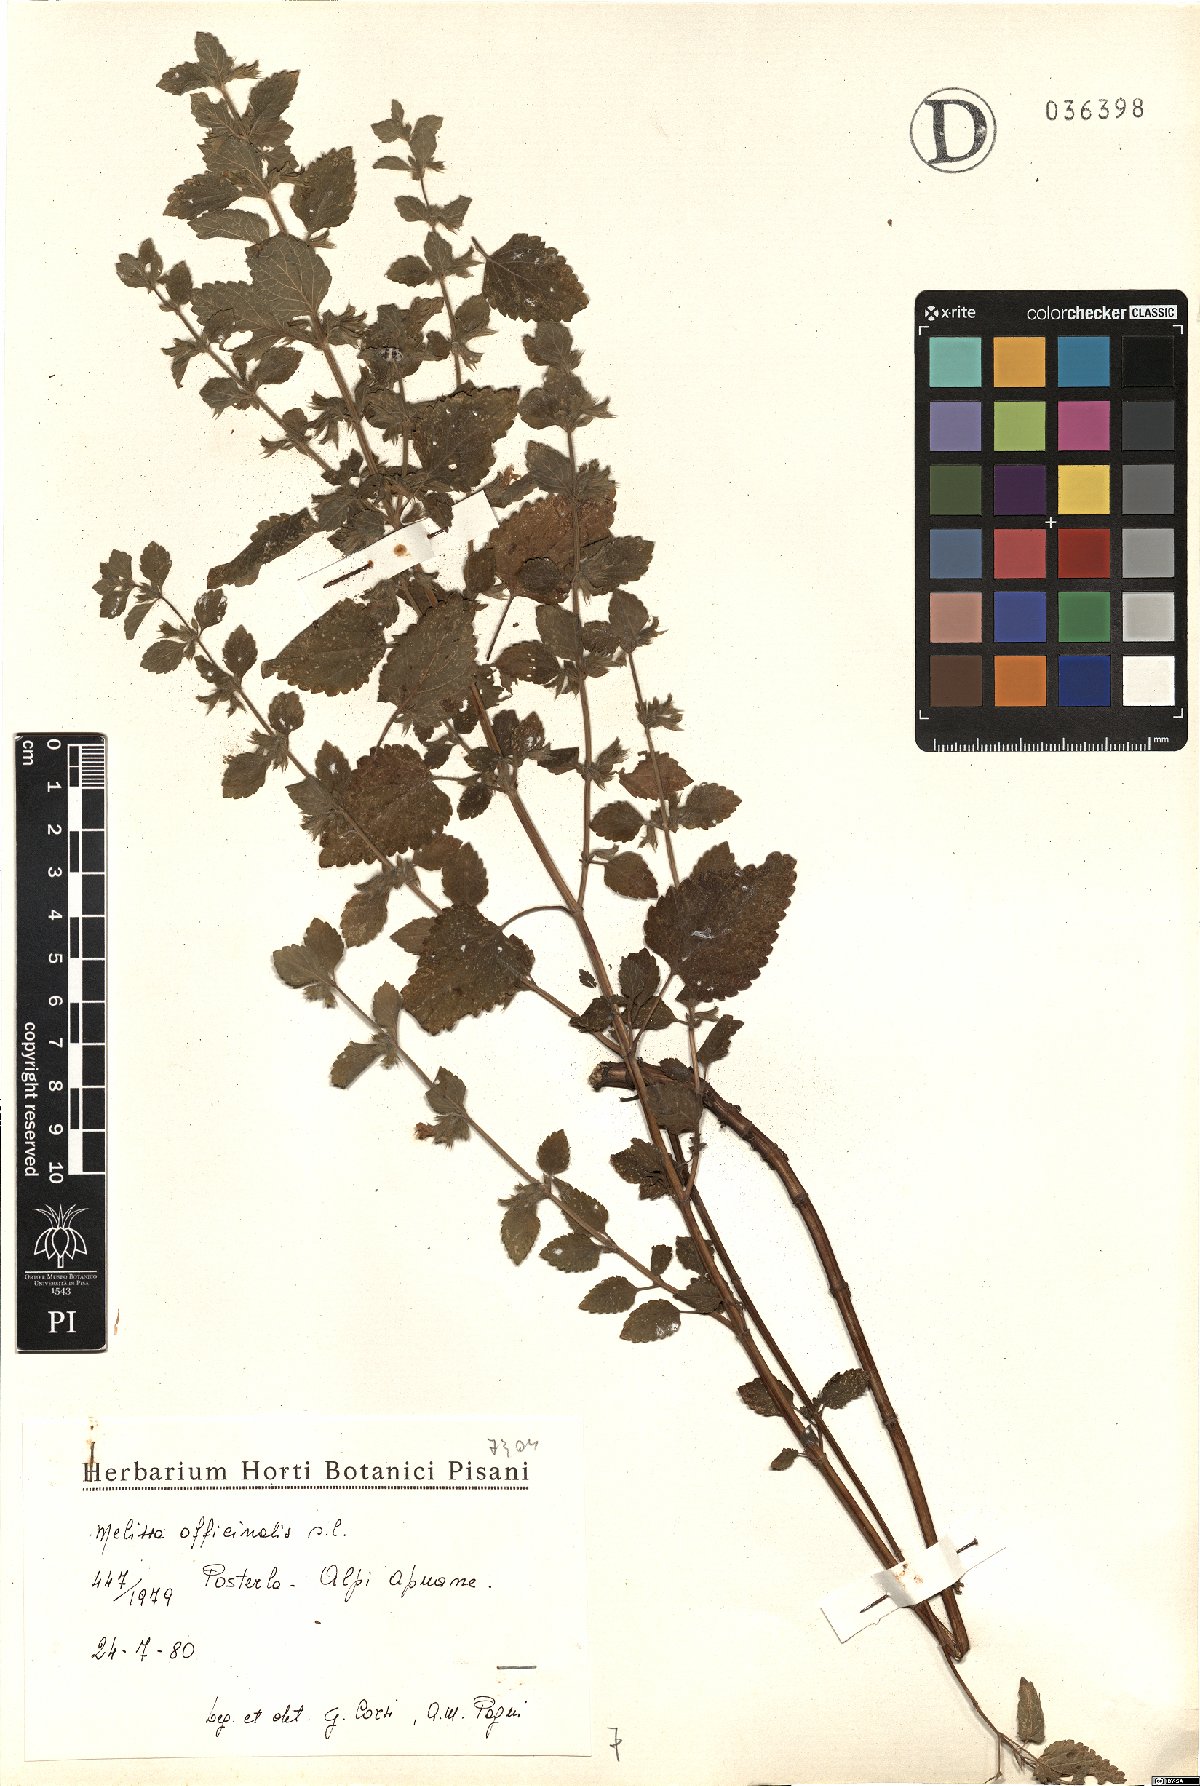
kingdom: Plantae
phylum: Tracheophyta
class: Magnoliopsida
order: Lamiales
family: Lamiaceae
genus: Melissa
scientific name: Melissa officinalis
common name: Balm
